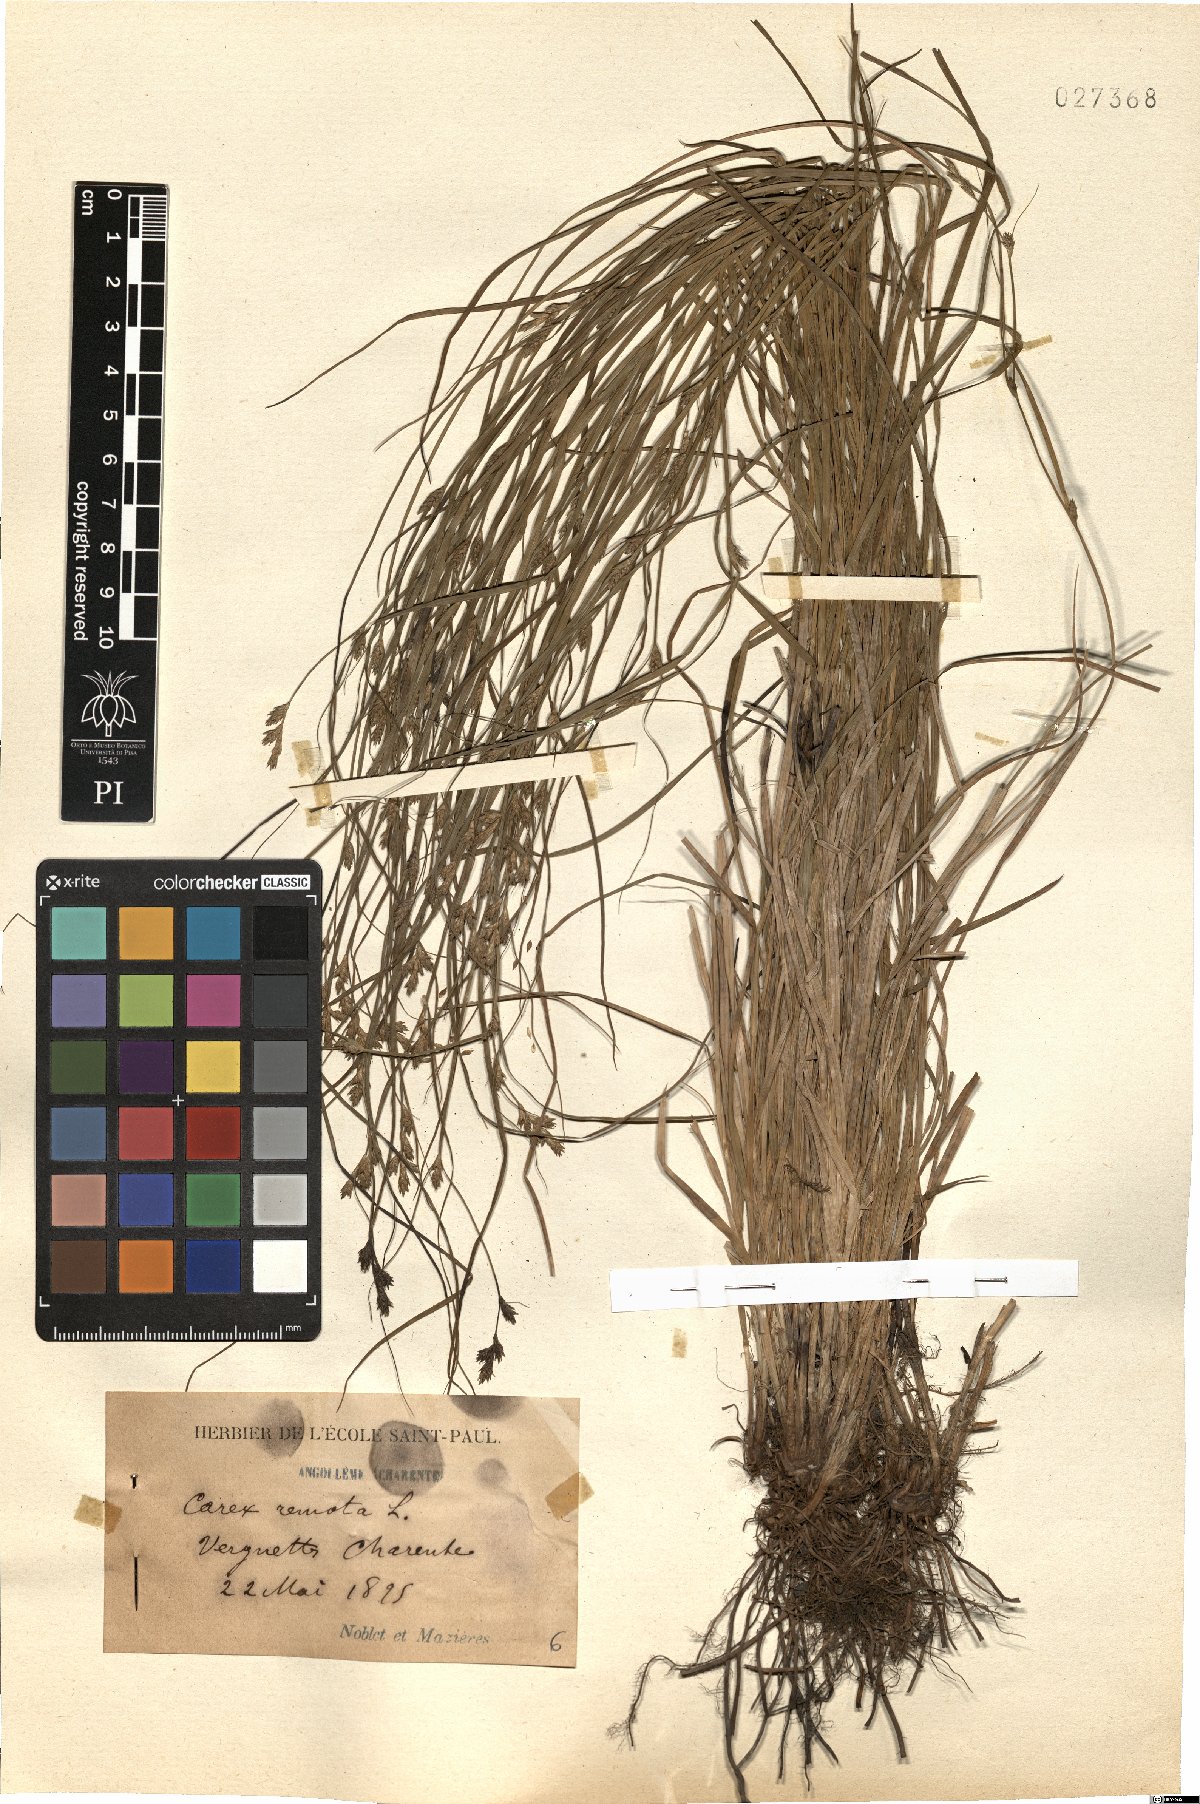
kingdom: Plantae
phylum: Tracheophyta
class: Liliopsida
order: Poales
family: Cyperaceae
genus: Carex
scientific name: Carex remota
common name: Remote sedge
